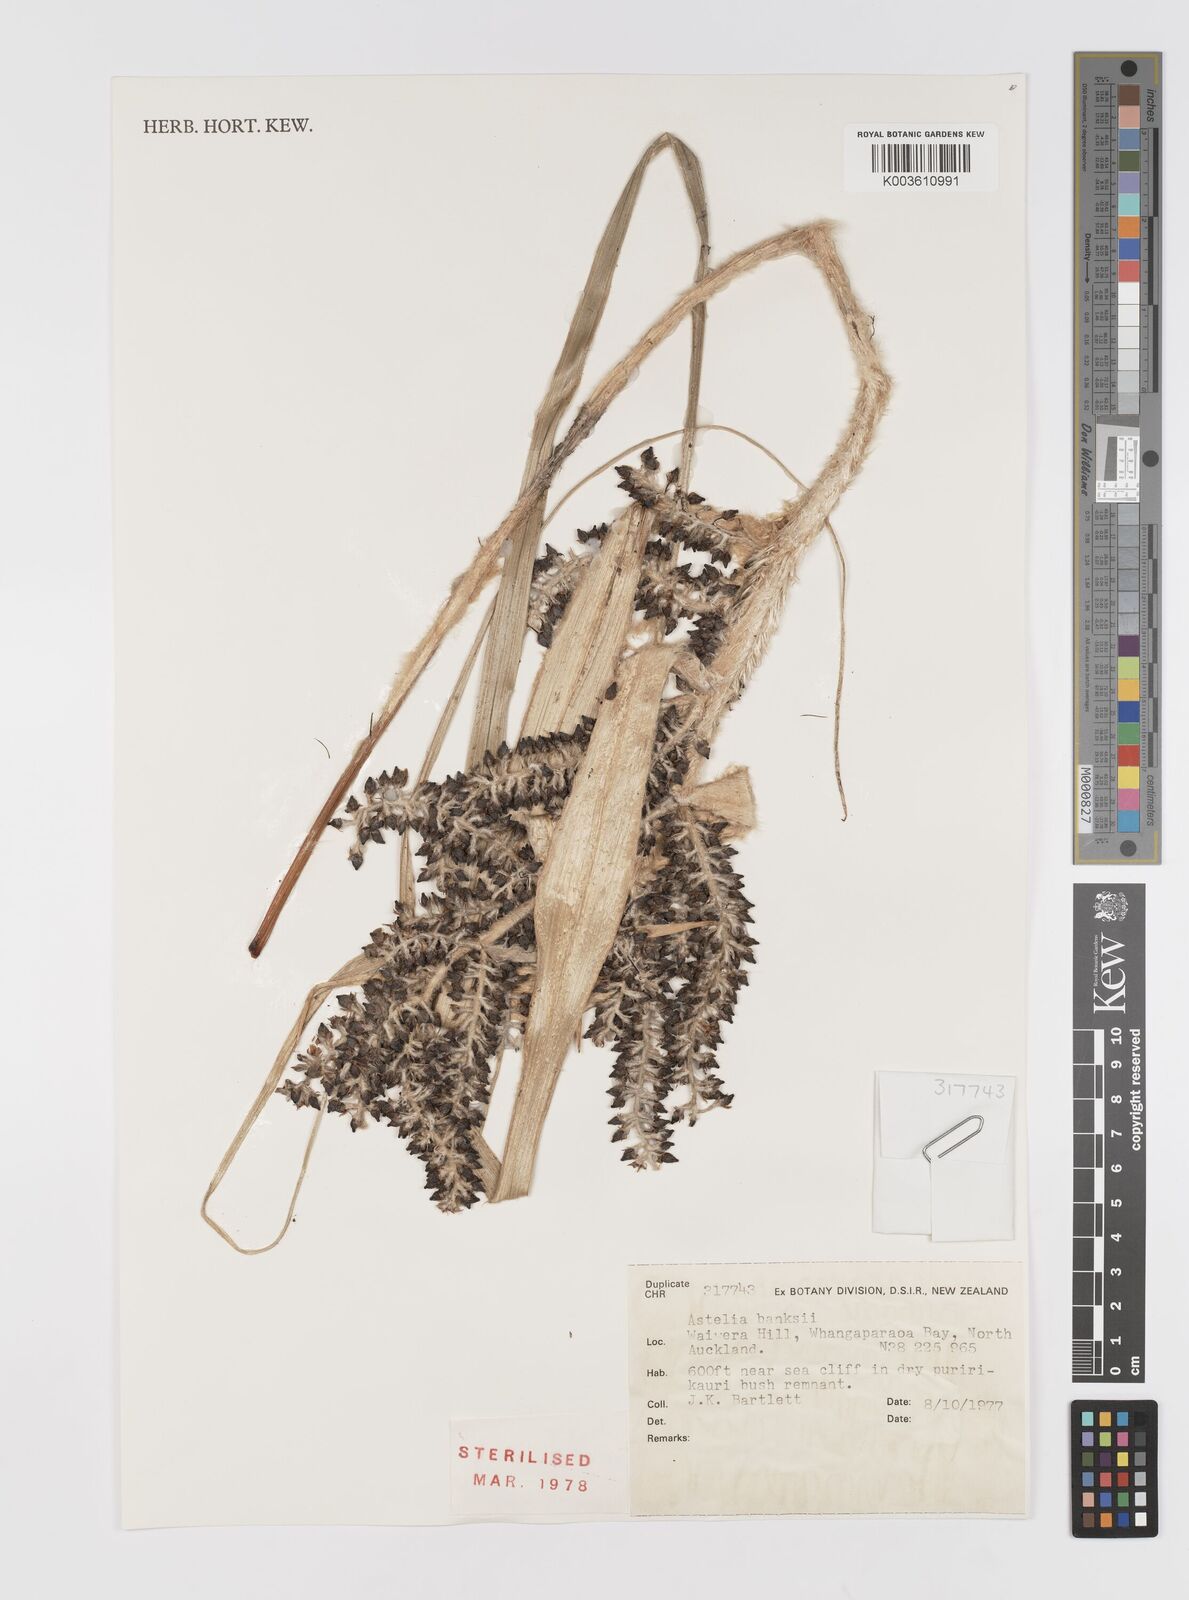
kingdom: Plantae
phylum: Tracheophyta
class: Liliopsida
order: Asparagales
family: Asteliaceae
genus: Astelia
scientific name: Astelia banksii
